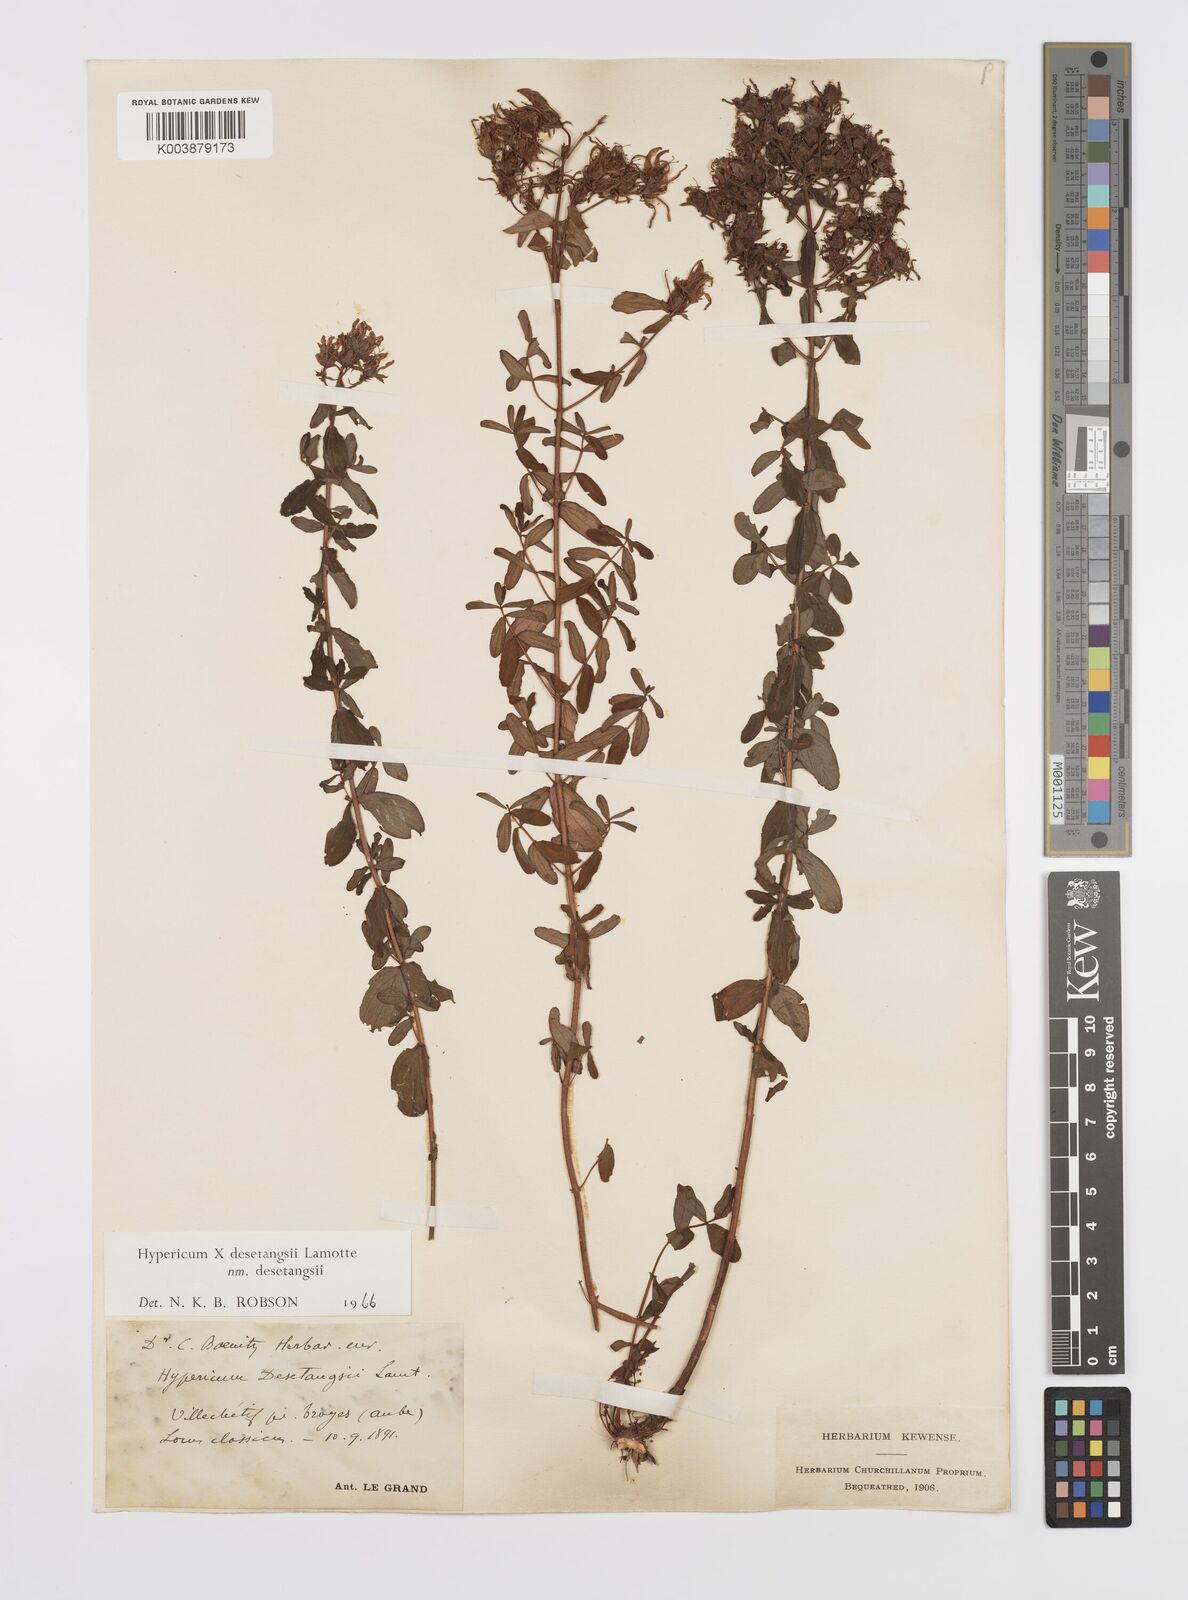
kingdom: Plantae
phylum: Tracheophyta
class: Magnoliopsida
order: Malpighiales
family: Hypericaceae
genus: Hypericum
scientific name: Hypericum desetangsii
